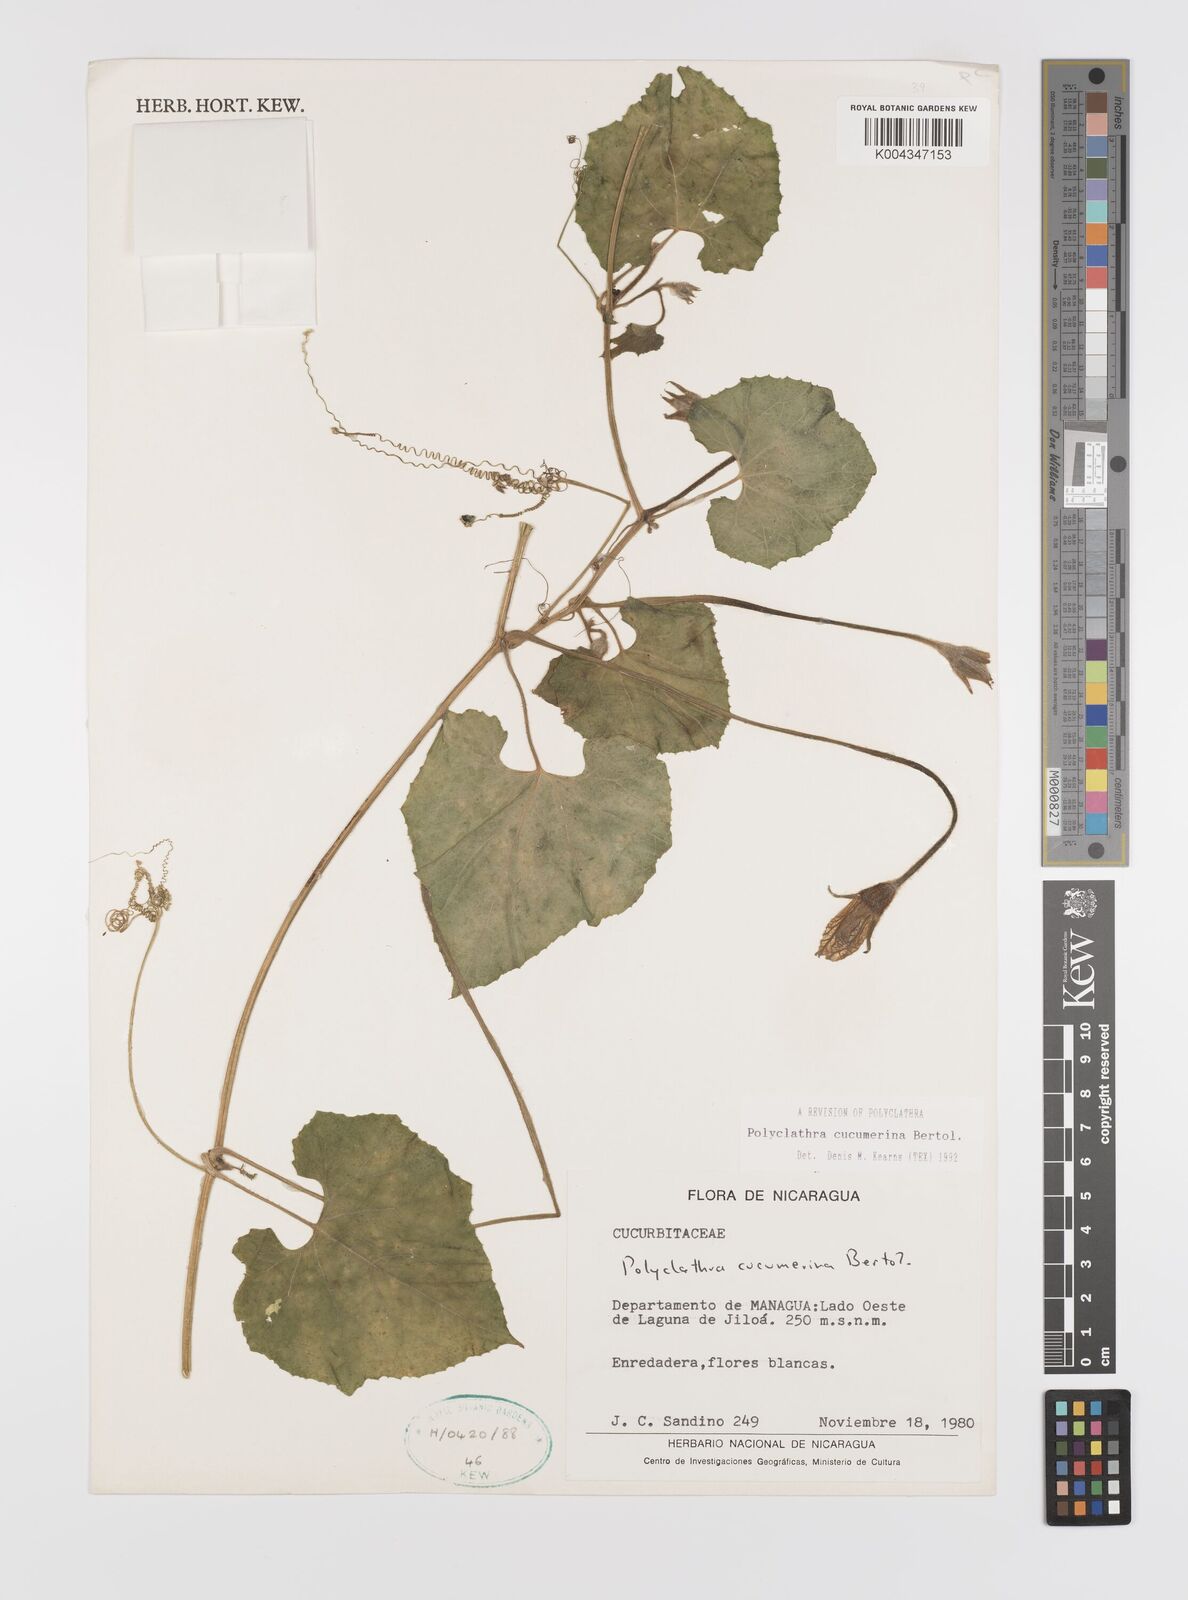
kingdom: Plantae
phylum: Tracheophyta
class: Magnoliopsida
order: Cucurbitales
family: Cucurbitaceae
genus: Polyclathra
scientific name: Polyclathra cucumerina
